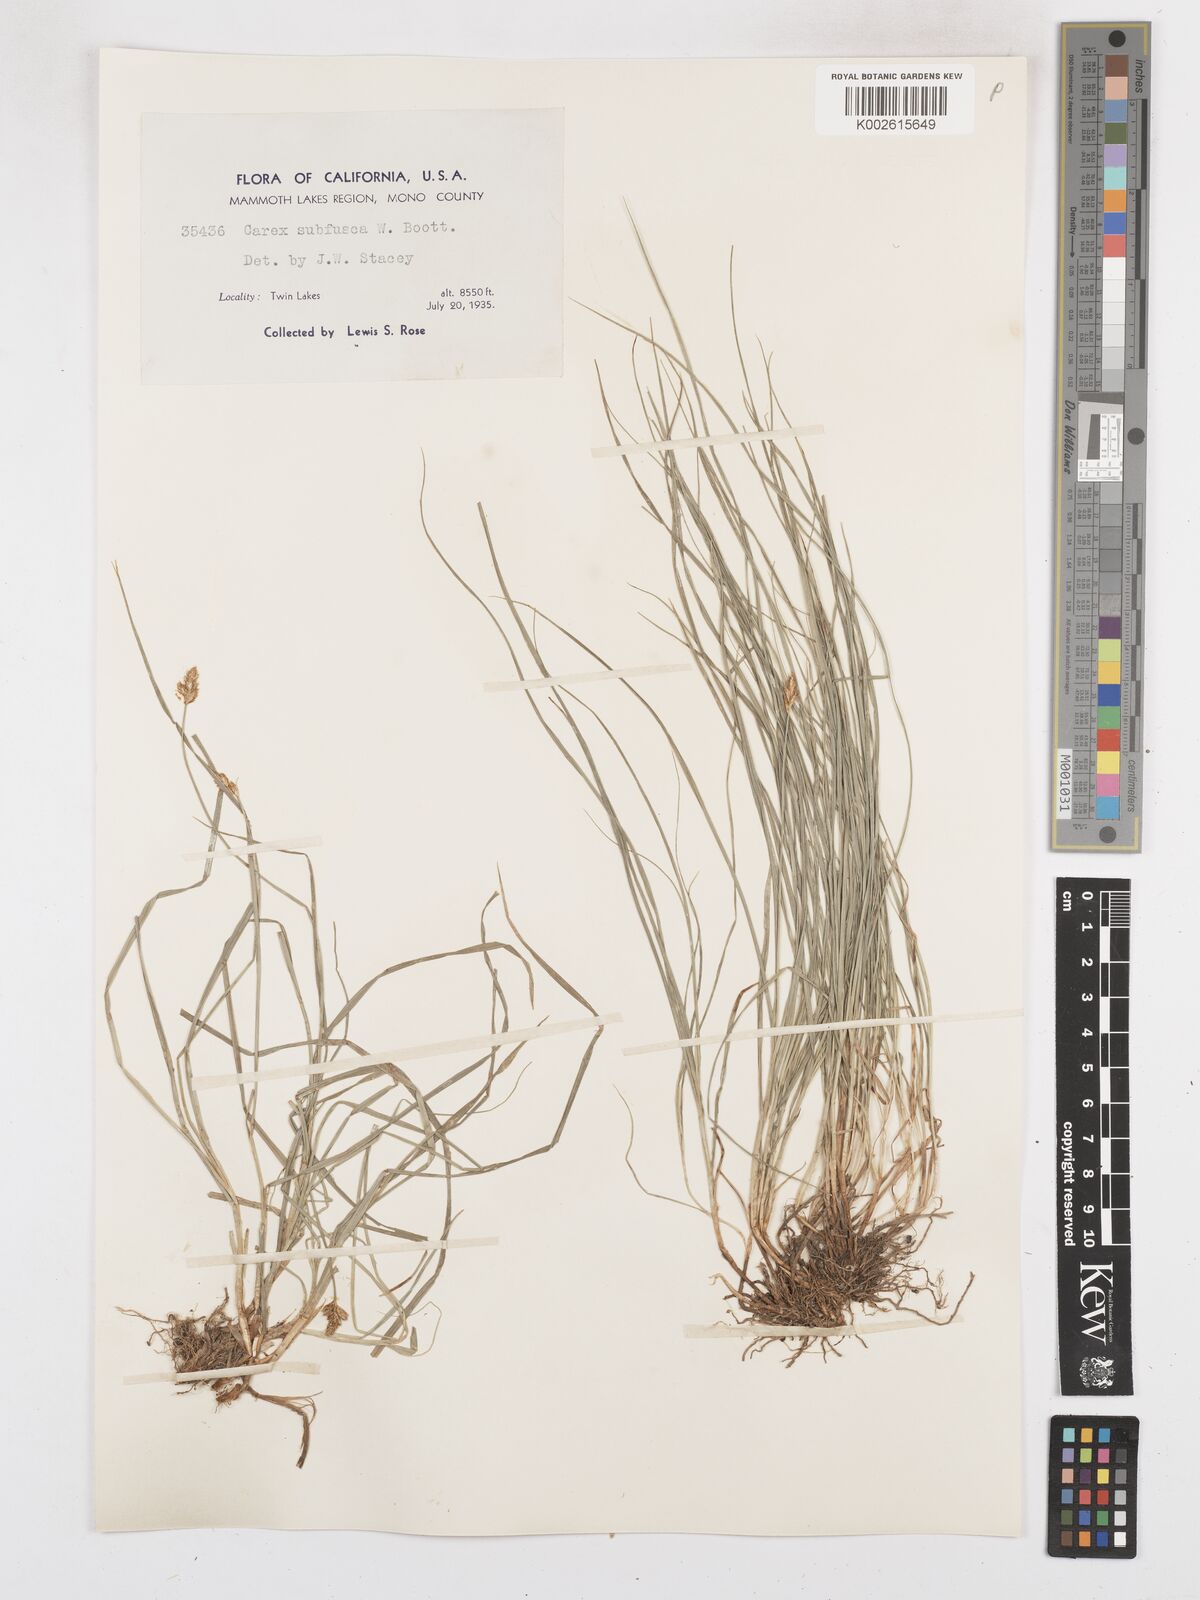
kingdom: Plantae
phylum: Tracheophyta
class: Liliopsida
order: Poales
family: Cyperaceae
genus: Carex
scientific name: Carex subfusca
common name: Brown sedge
